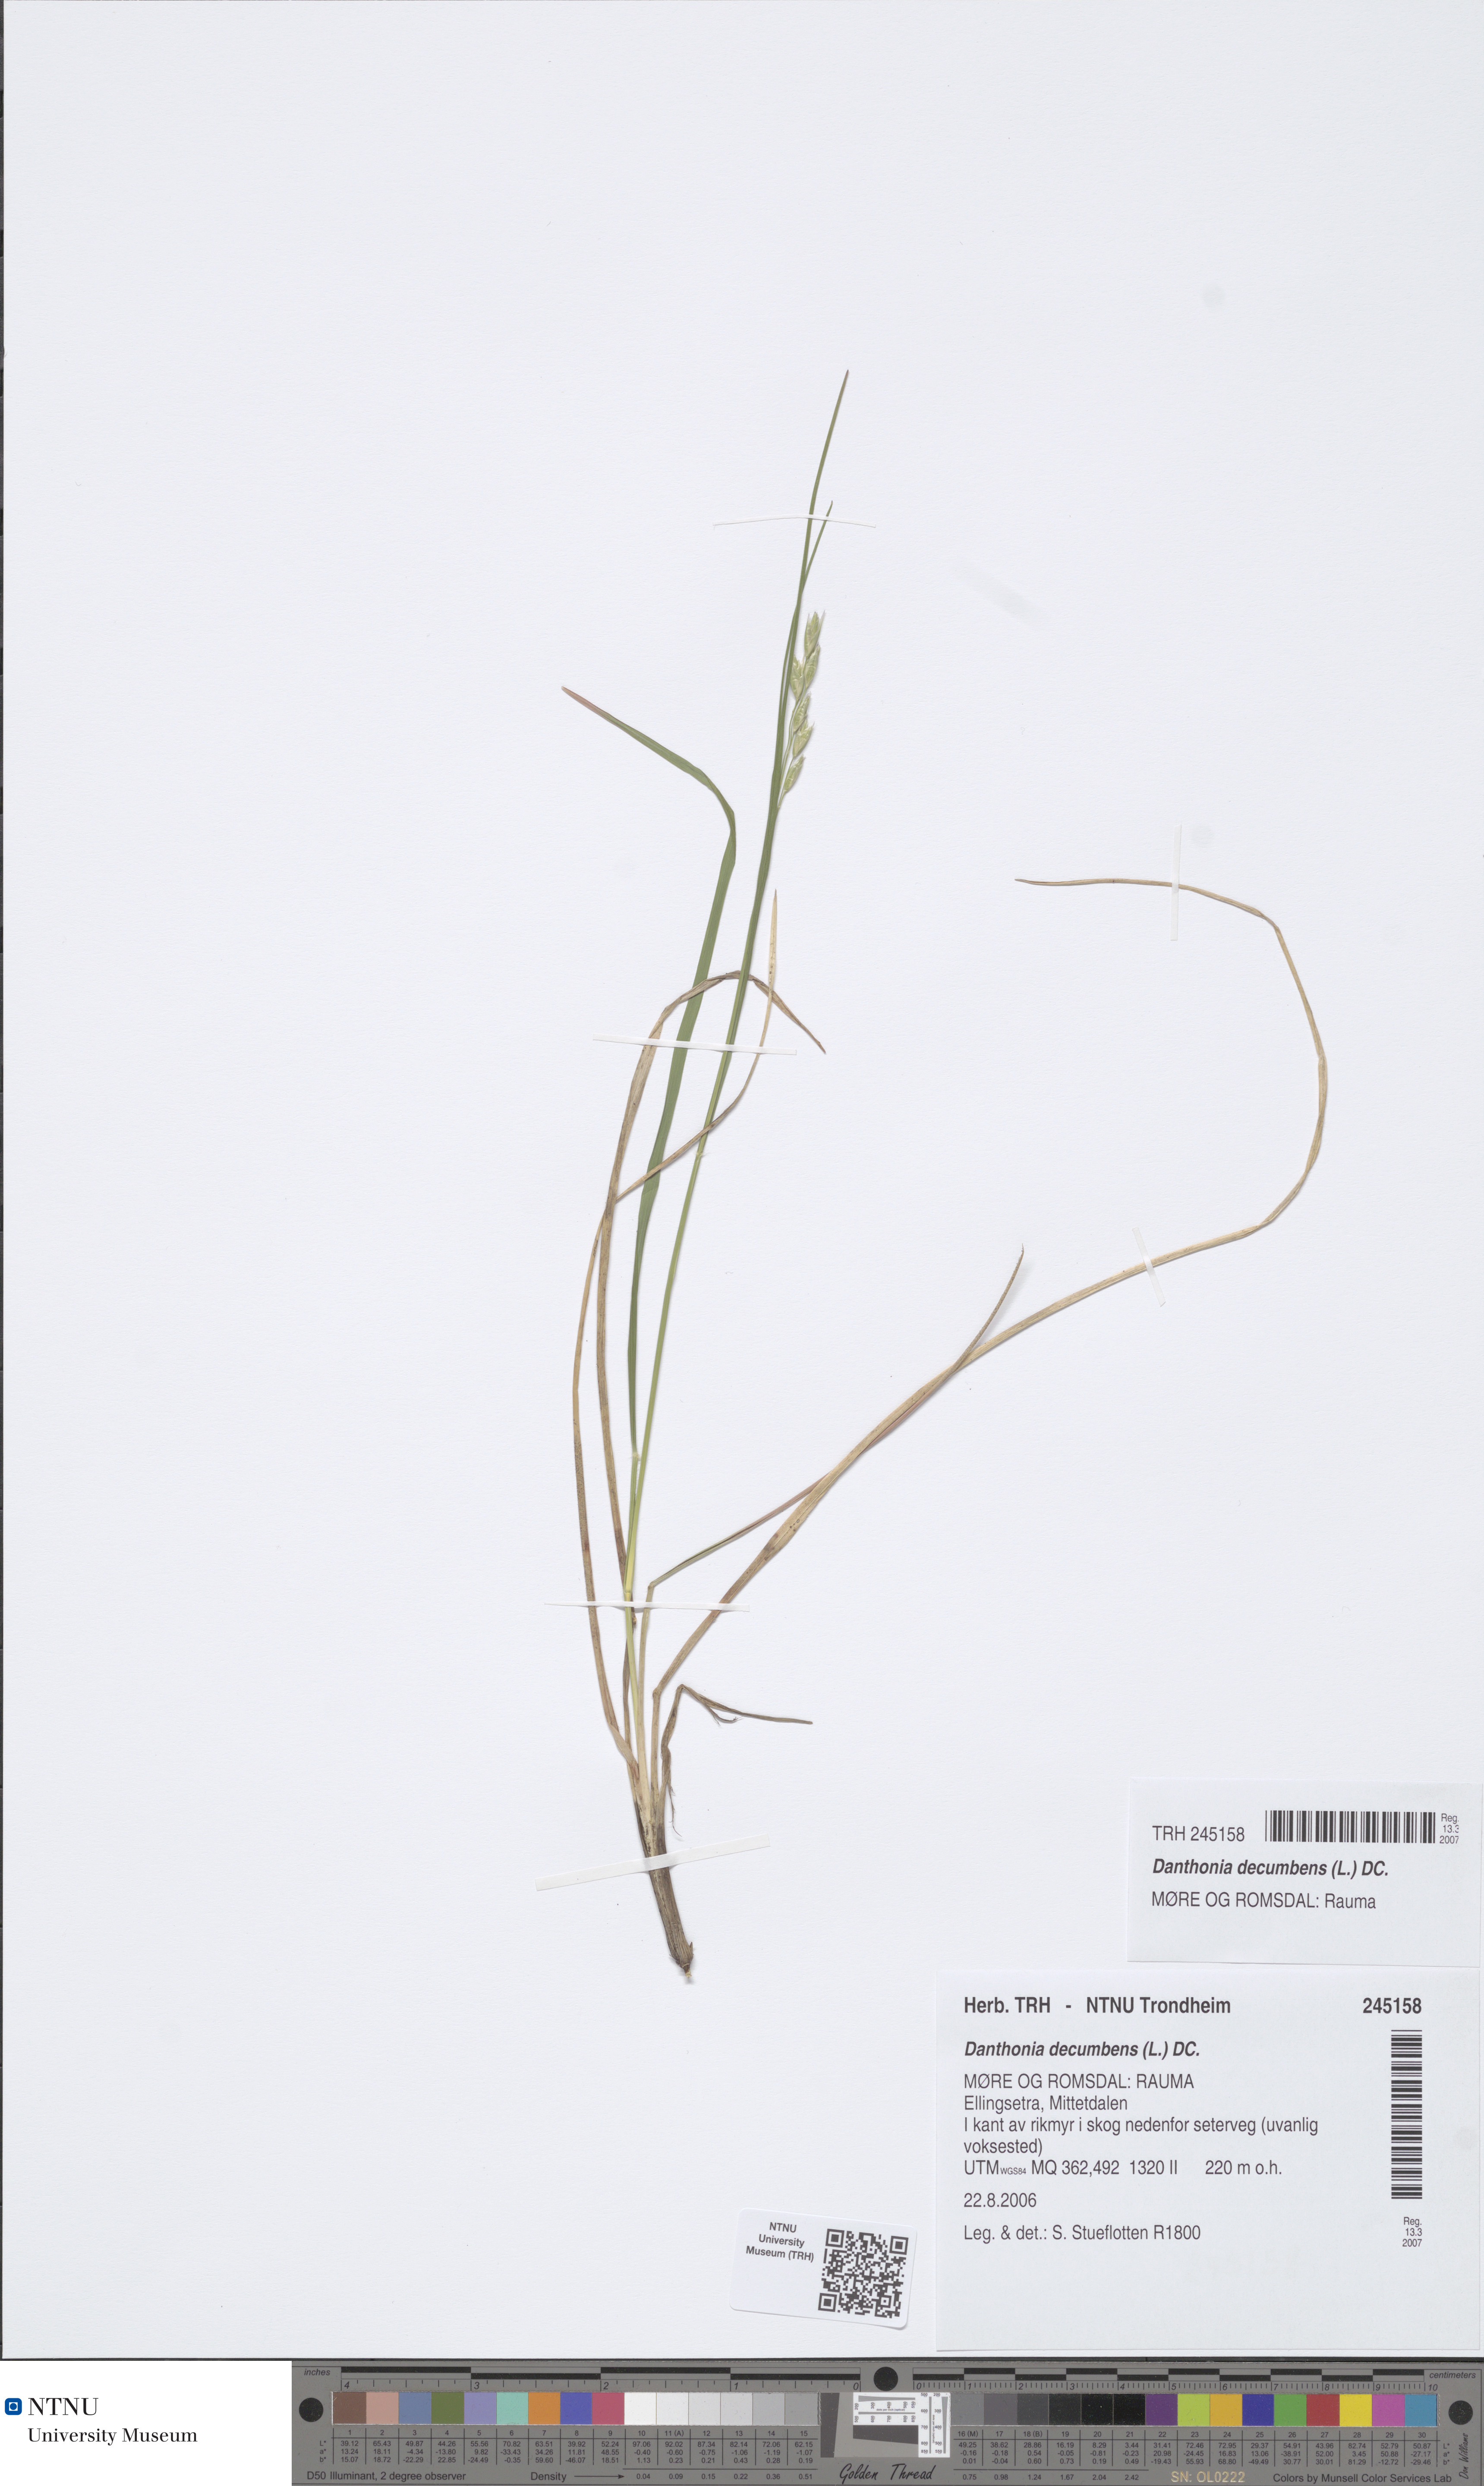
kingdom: Plantae
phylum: Tracheophyta
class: Liliopsida
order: Poales
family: Poaceae
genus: Danthonia
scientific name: Danthonia decumbens
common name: Common heathgrass
